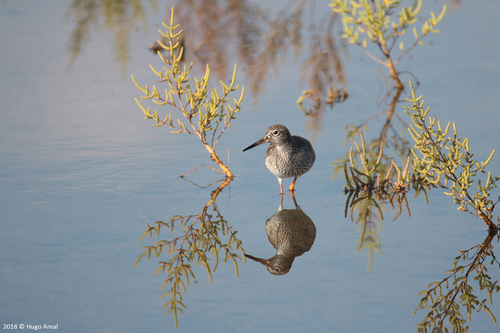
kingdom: Animalia
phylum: Chordata
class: Aves
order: Charadriiformes
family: Scolopacidae
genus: Tringa
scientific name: Tringa totanus
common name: Common redshank
